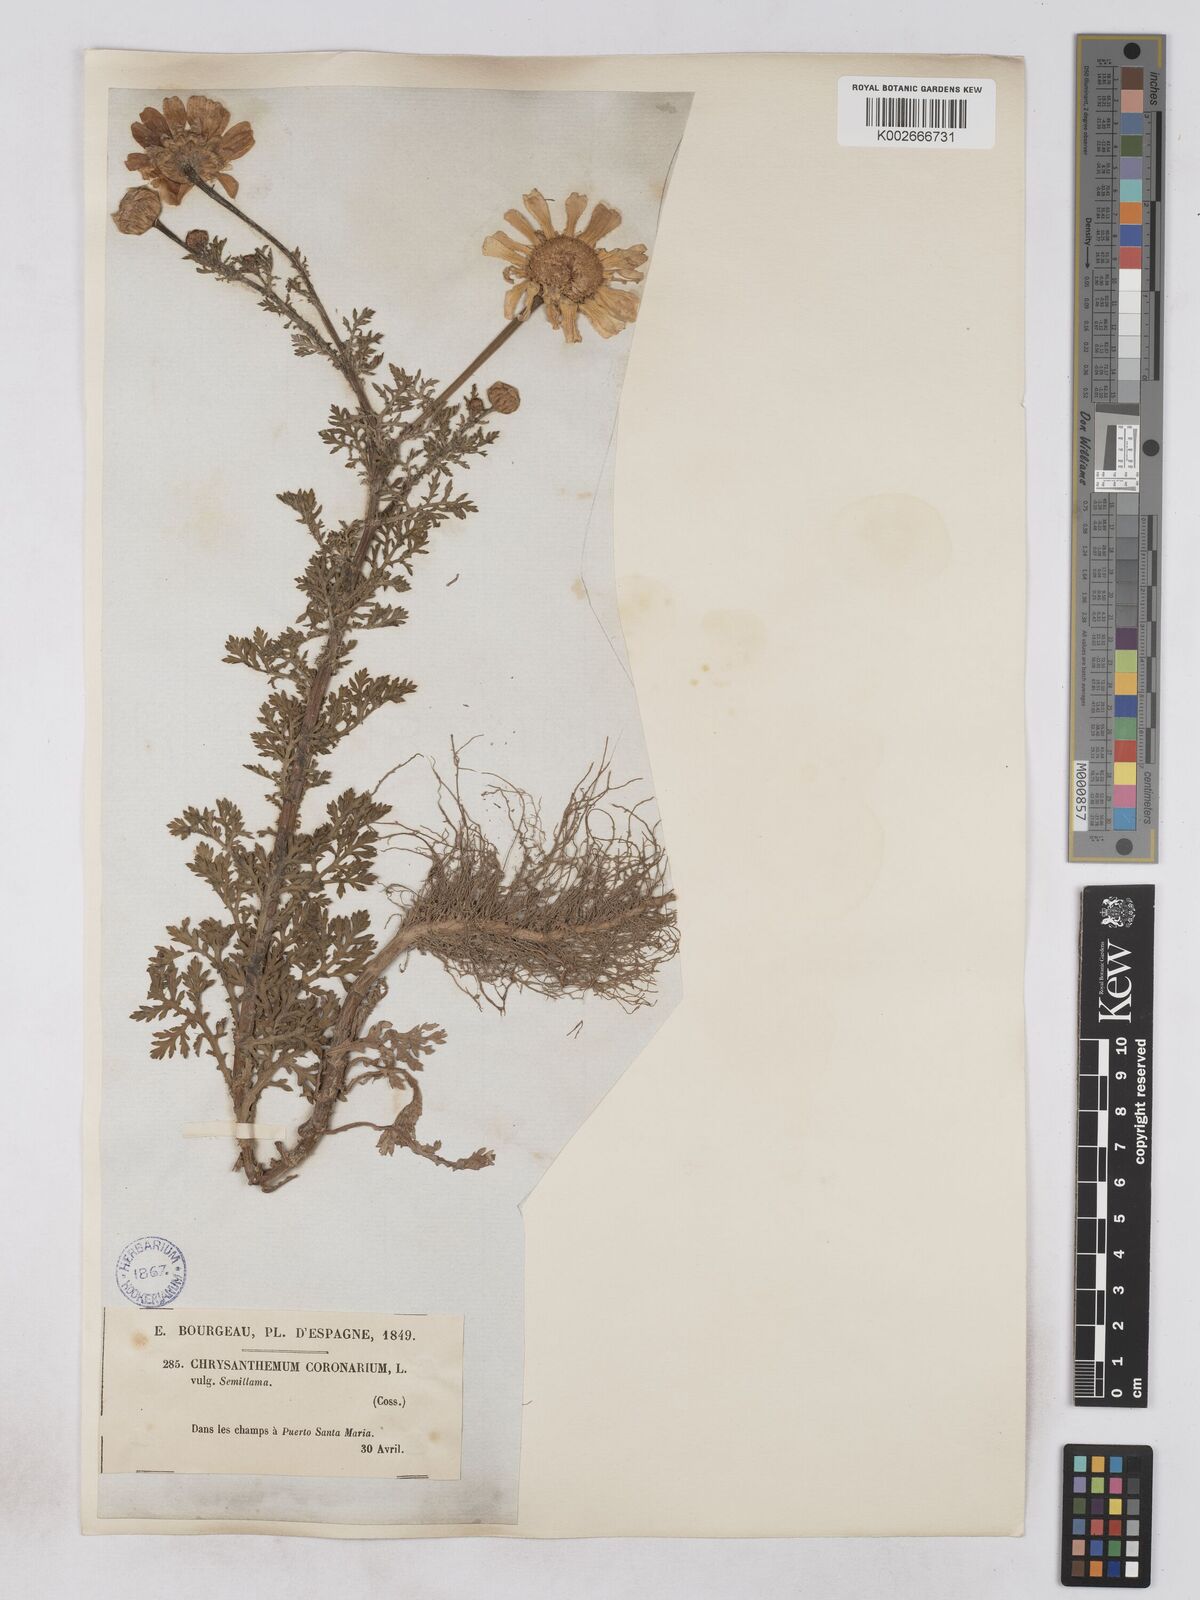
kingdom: Plantae
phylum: Tracheophyta
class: Magnoliopsida
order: Asterales
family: Asteraceae
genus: Glebionis
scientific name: Glebionis
